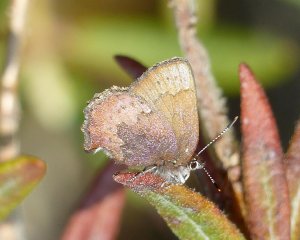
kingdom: Animalia
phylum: Arthropoda
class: Insecta
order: Lepidoptera
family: Lycaenidae
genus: Incisalia
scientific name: Incisalia irioides
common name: Brown Elfin
